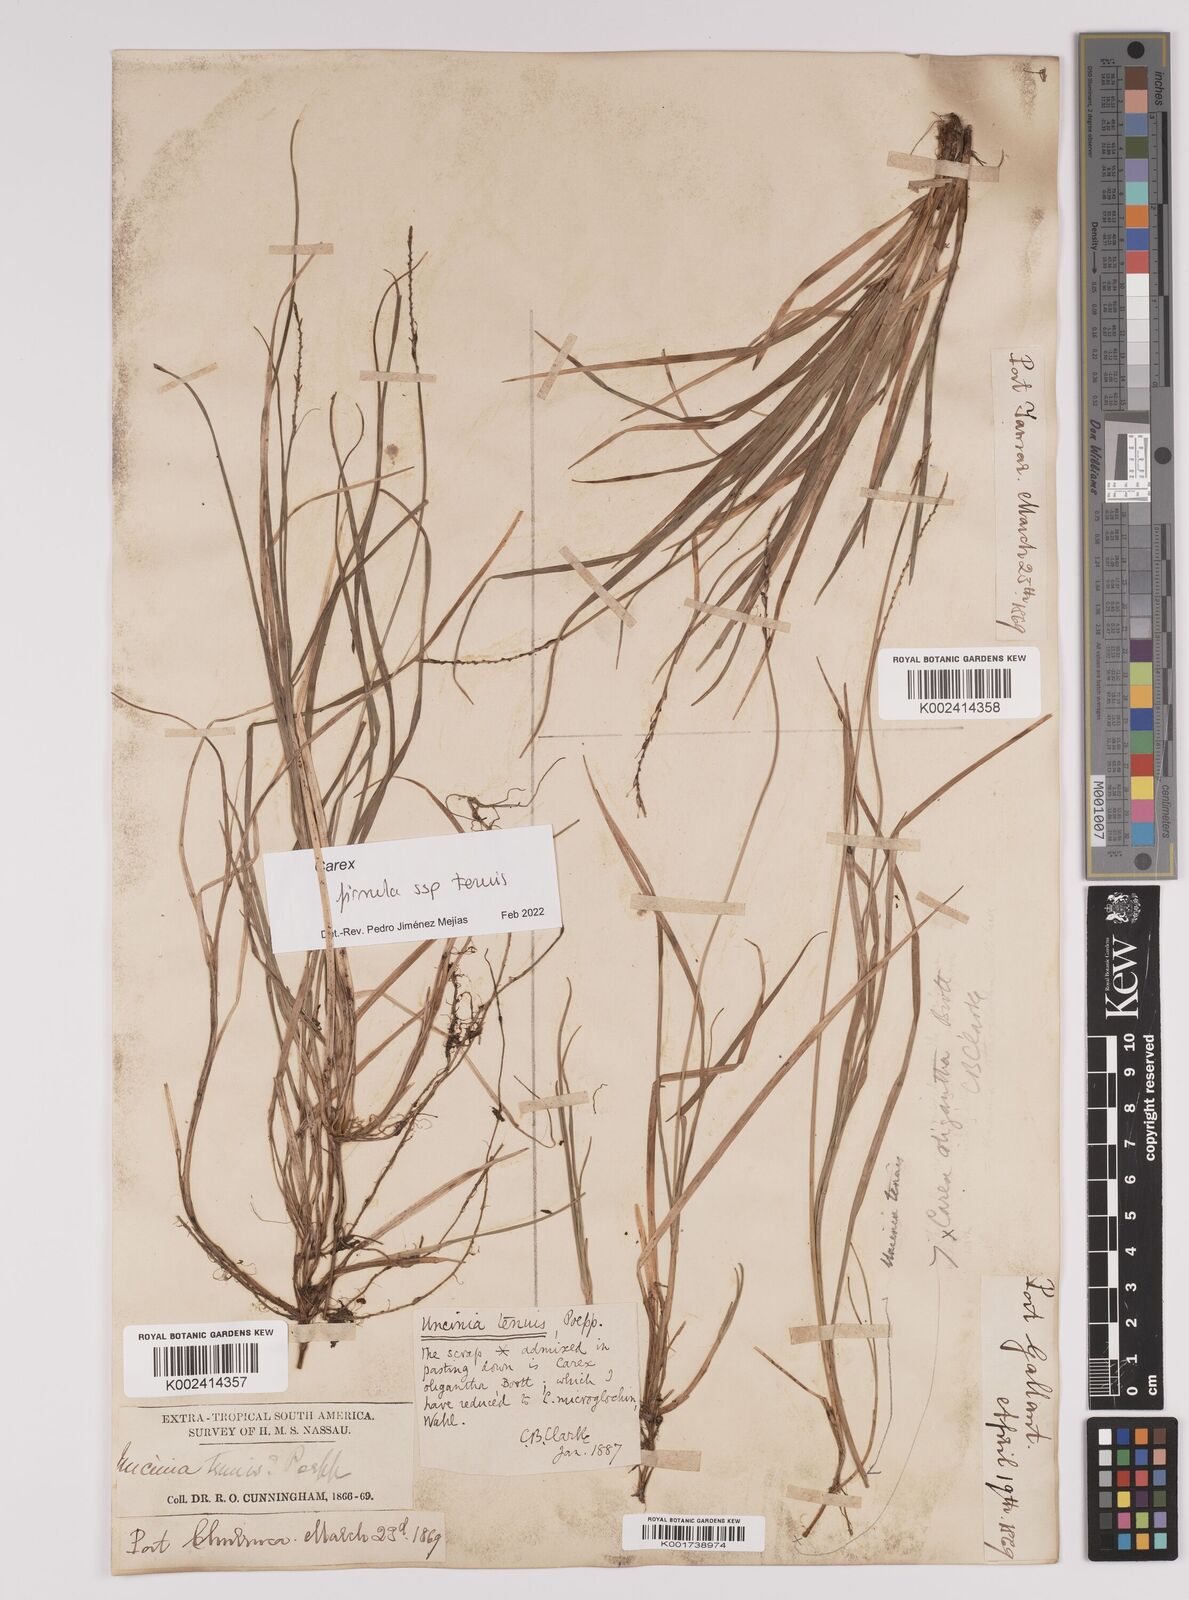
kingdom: Plantae
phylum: Tracheophyta
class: Liliopsida
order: Poales
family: Cyperaceae
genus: Carex
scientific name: Carex firmula
